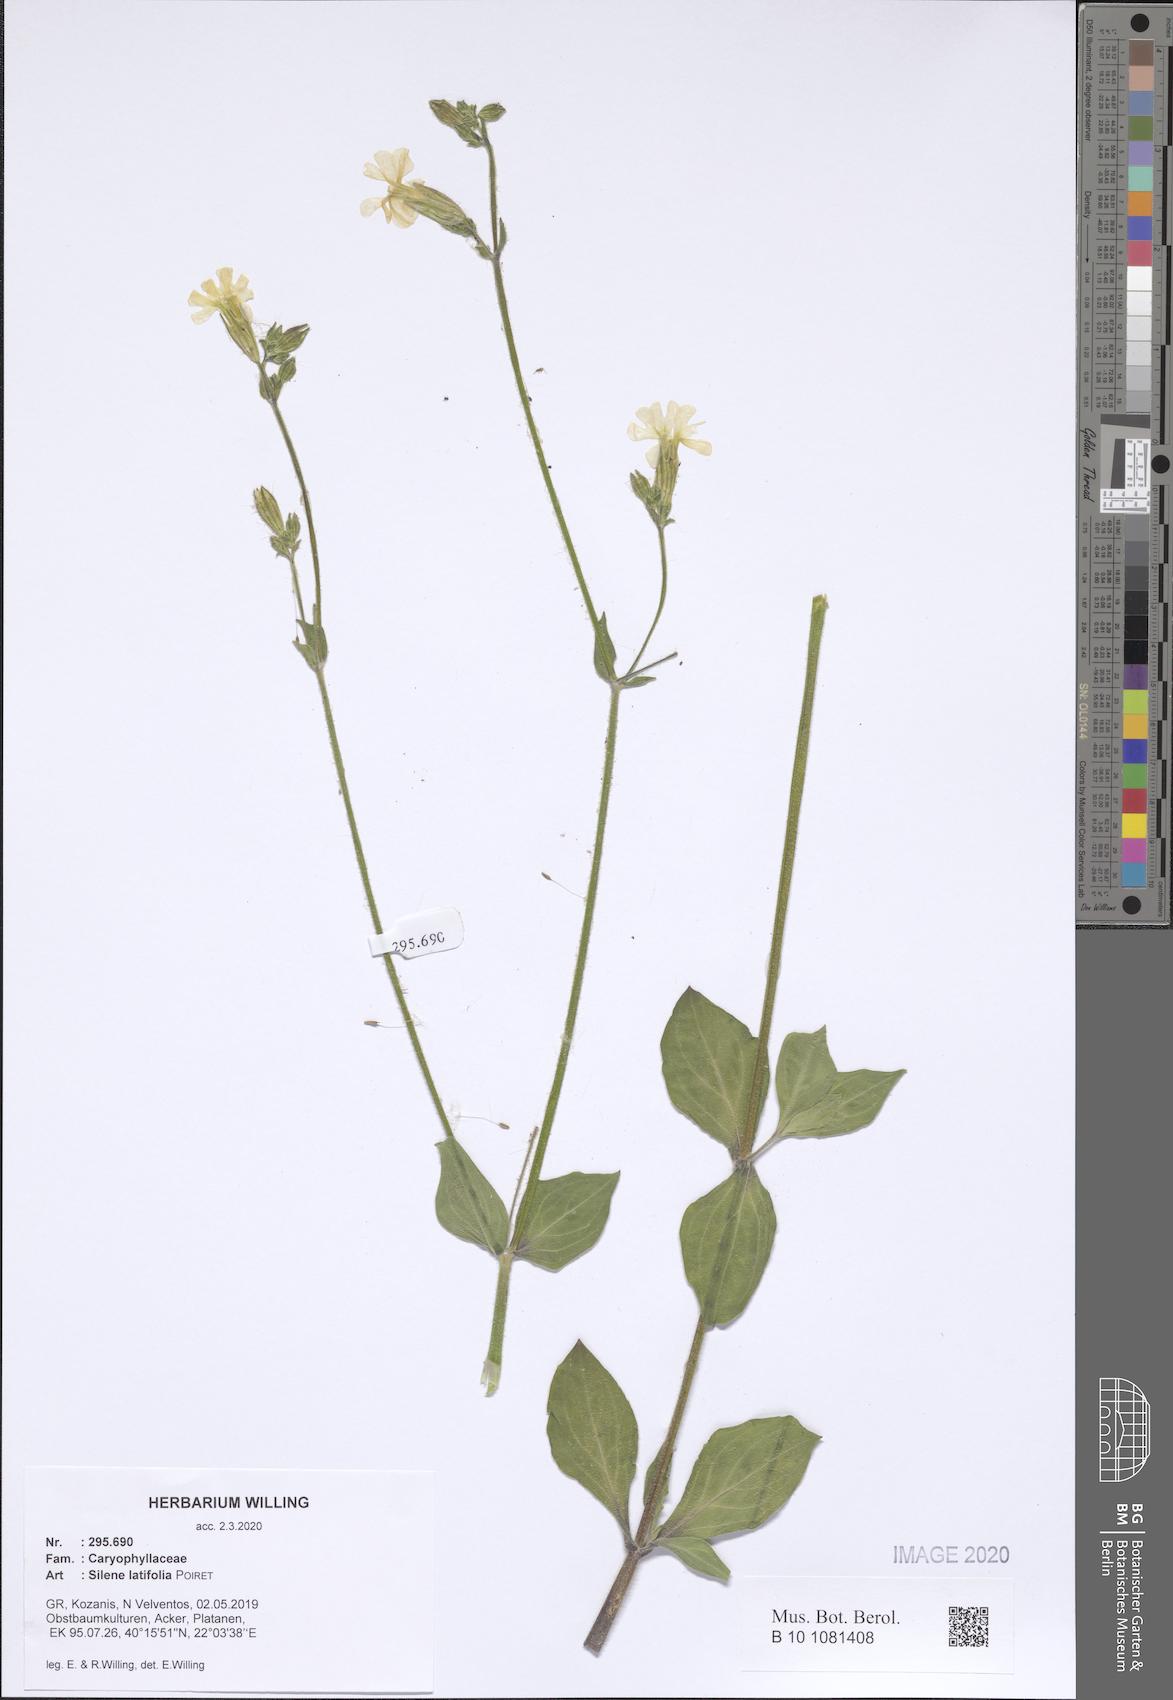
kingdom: Plantae
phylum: Tracheophyta
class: Magnoliopsida
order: Caryophyllales
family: Caryophyllaceae
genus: Silene
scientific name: Silene latifolia
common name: White campion
